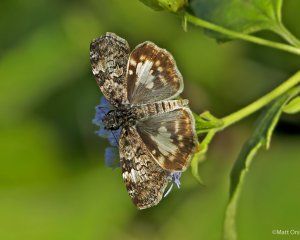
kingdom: Animalia
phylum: Arthropoda
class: Insecta
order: Lepidoptera
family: Hesperiidae
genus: Chiomara
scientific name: Chiomara asychis
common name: White-patched Skipper
